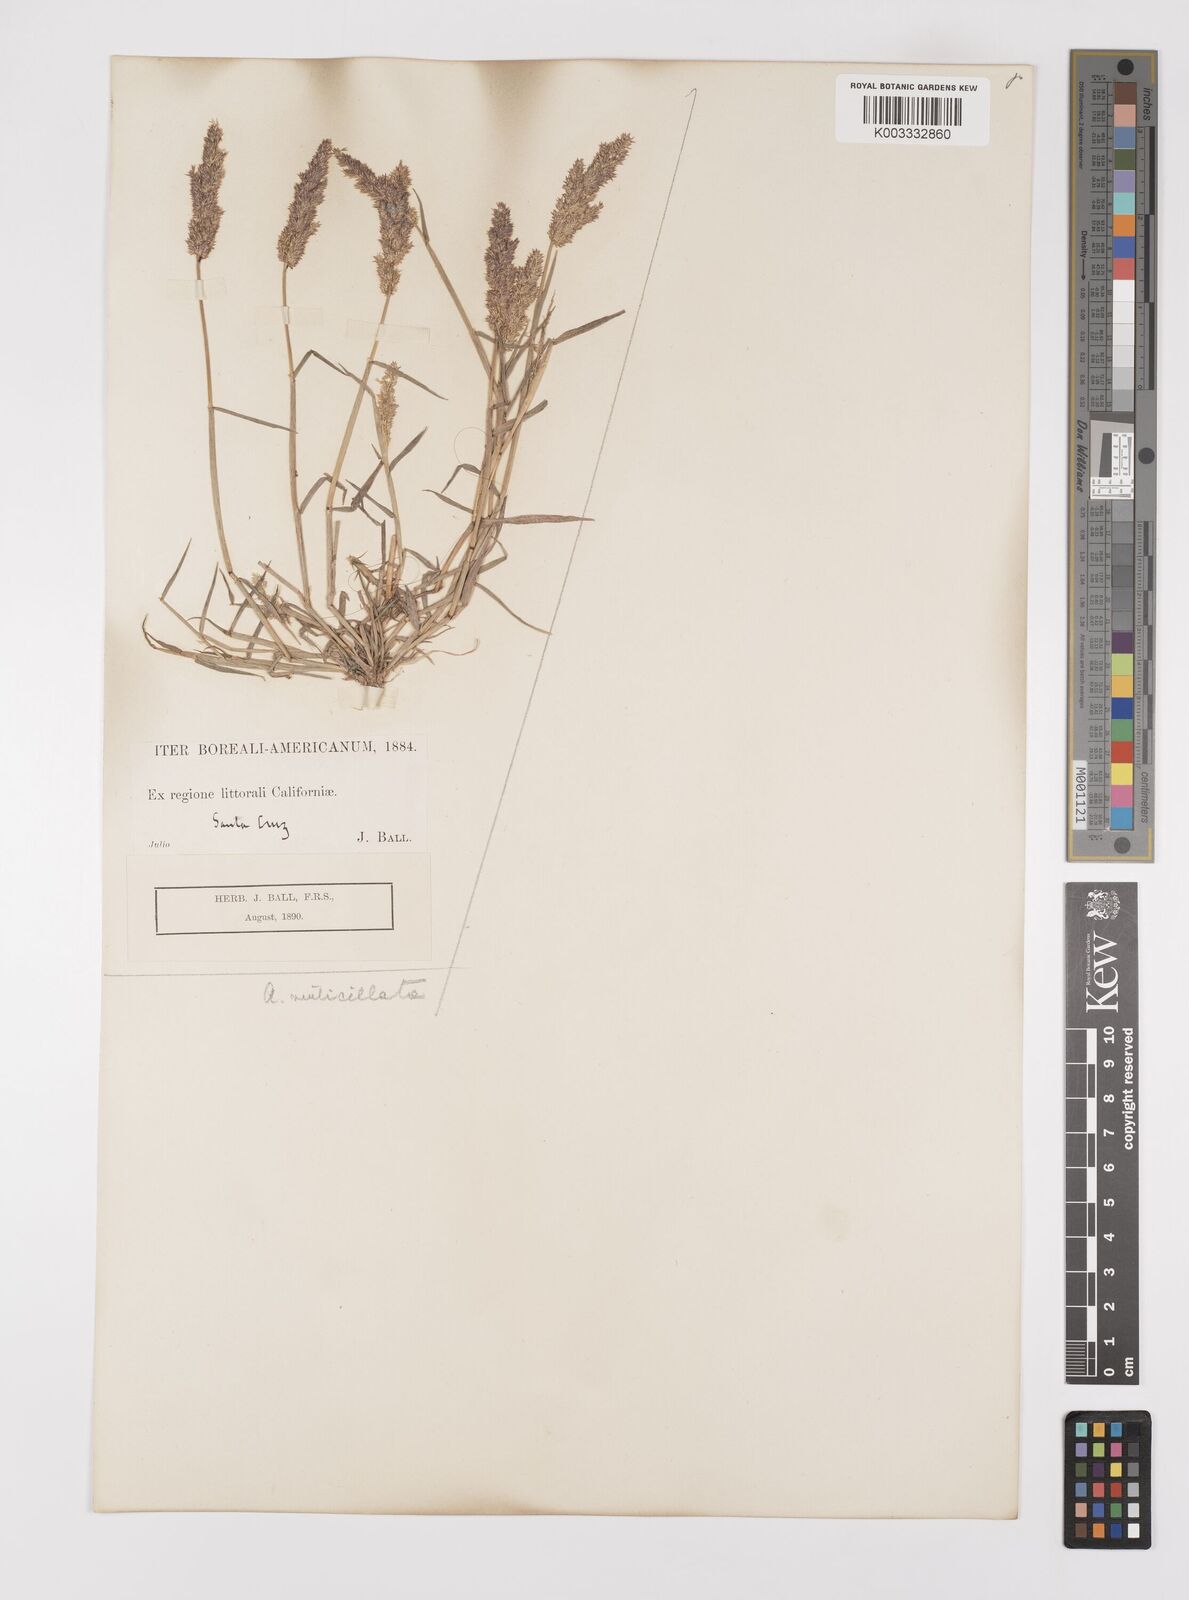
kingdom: Plantae
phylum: Tracheophyta
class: Liliopsida
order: Poales
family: Poaceae
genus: Polypogon
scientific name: Polypogon viridis
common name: Water bent
